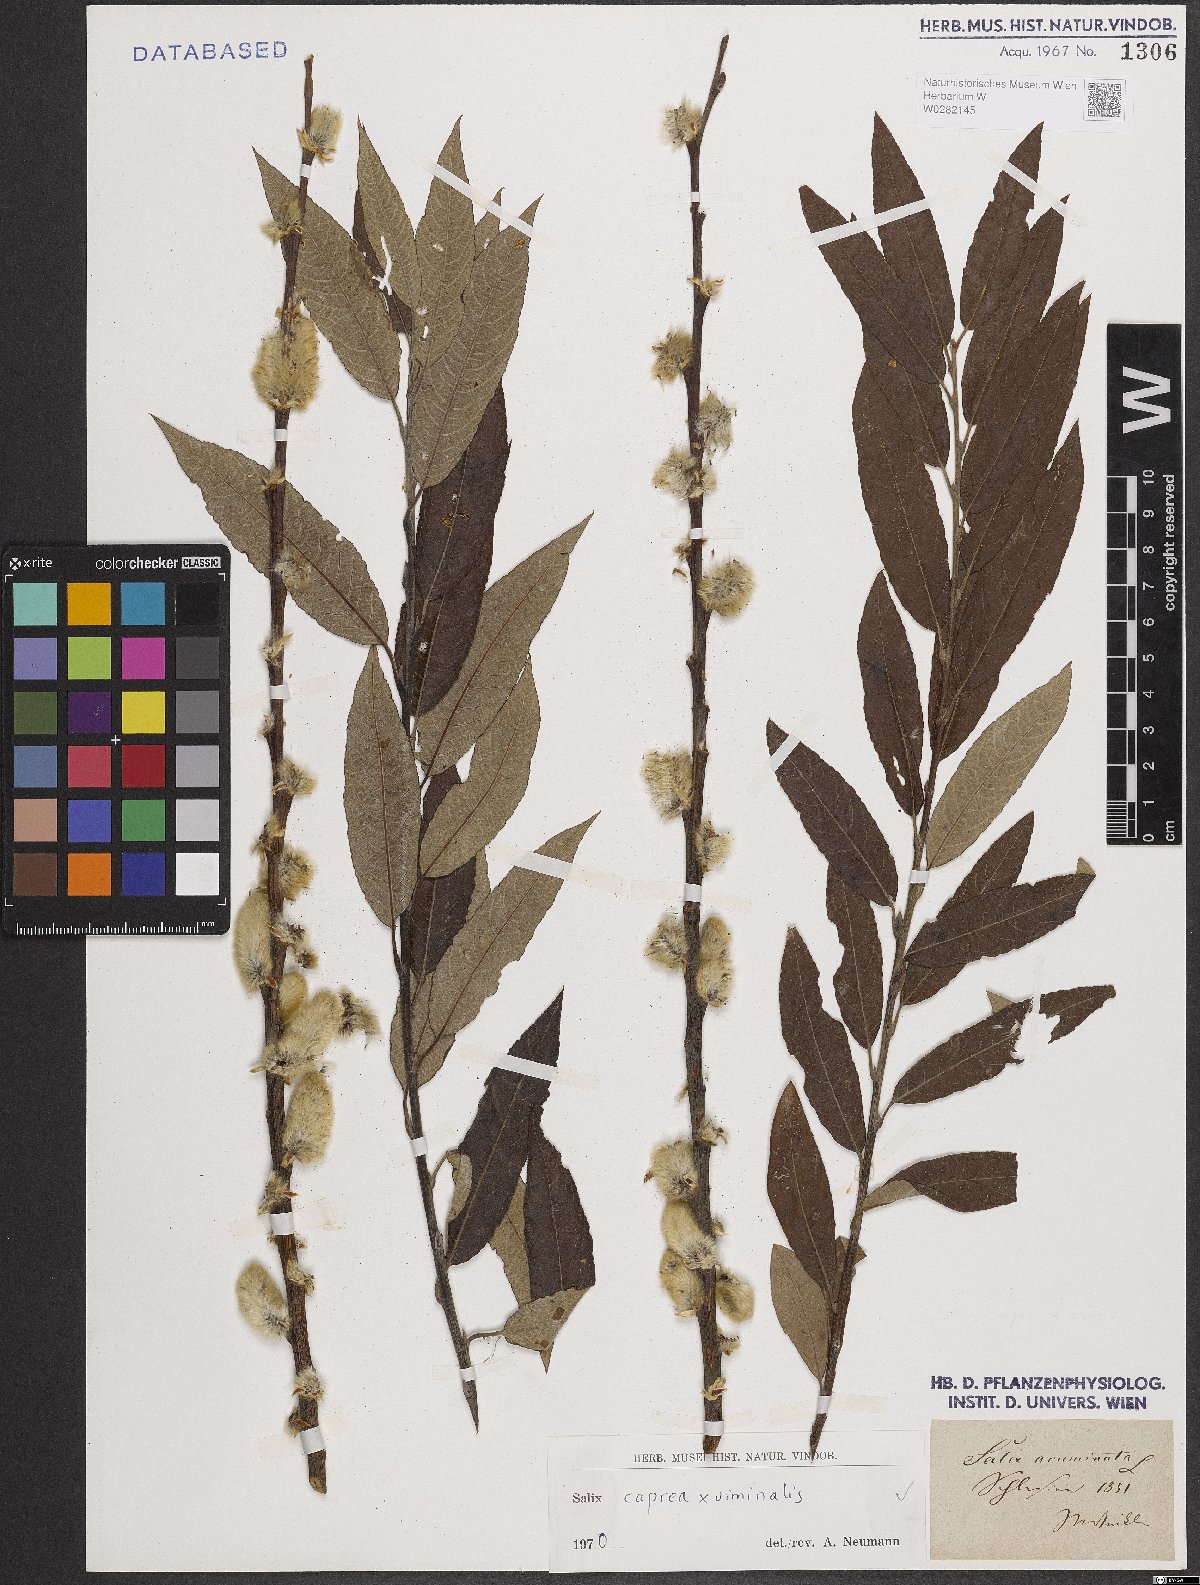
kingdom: Plantae
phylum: Tracheophyta
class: Magnoliopsida
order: Malpighiales
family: Salicaceae
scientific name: Salicaceae
